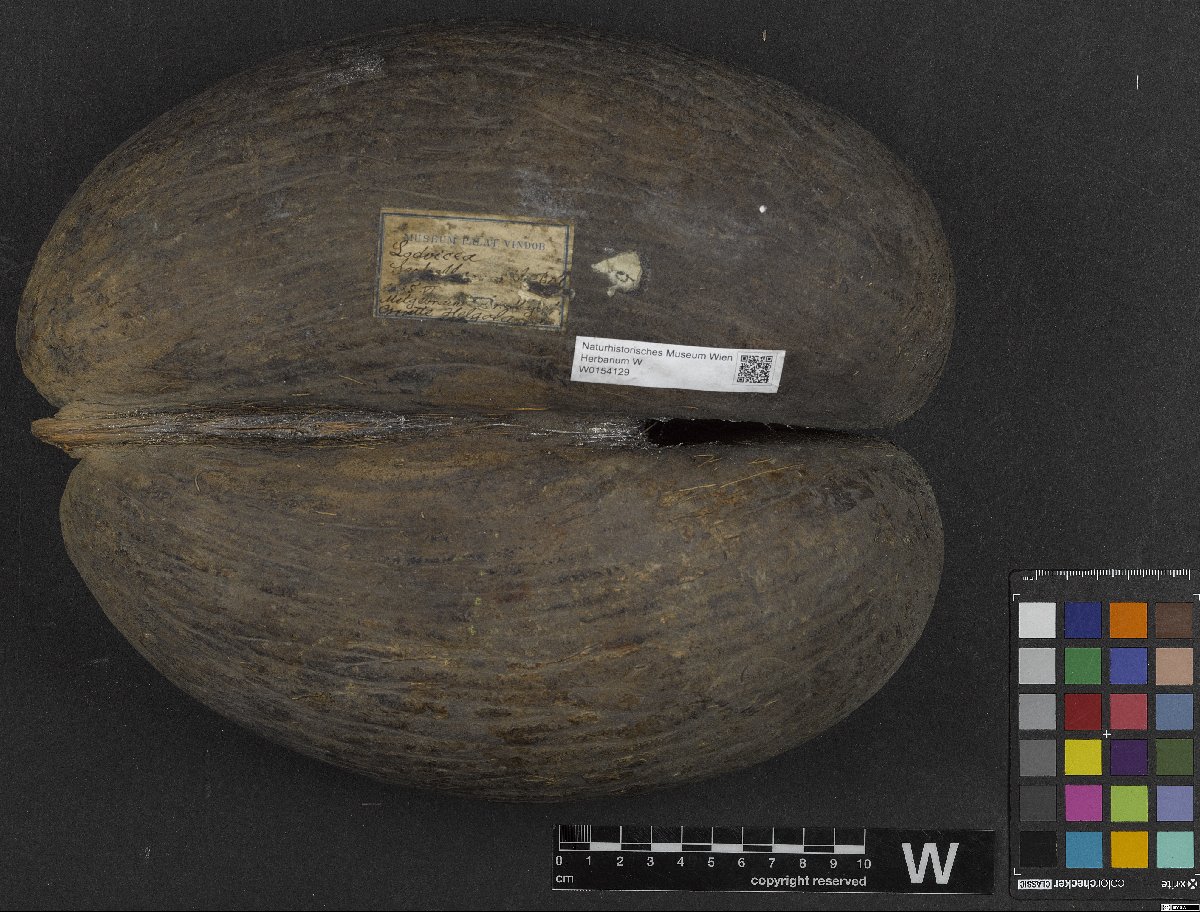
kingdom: Plantae
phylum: Tracheophyta
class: Liliopsida
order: Arecales
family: Arecaceae
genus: Lodoicea
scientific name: Lodoicea maldivica
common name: Double coconut palm
